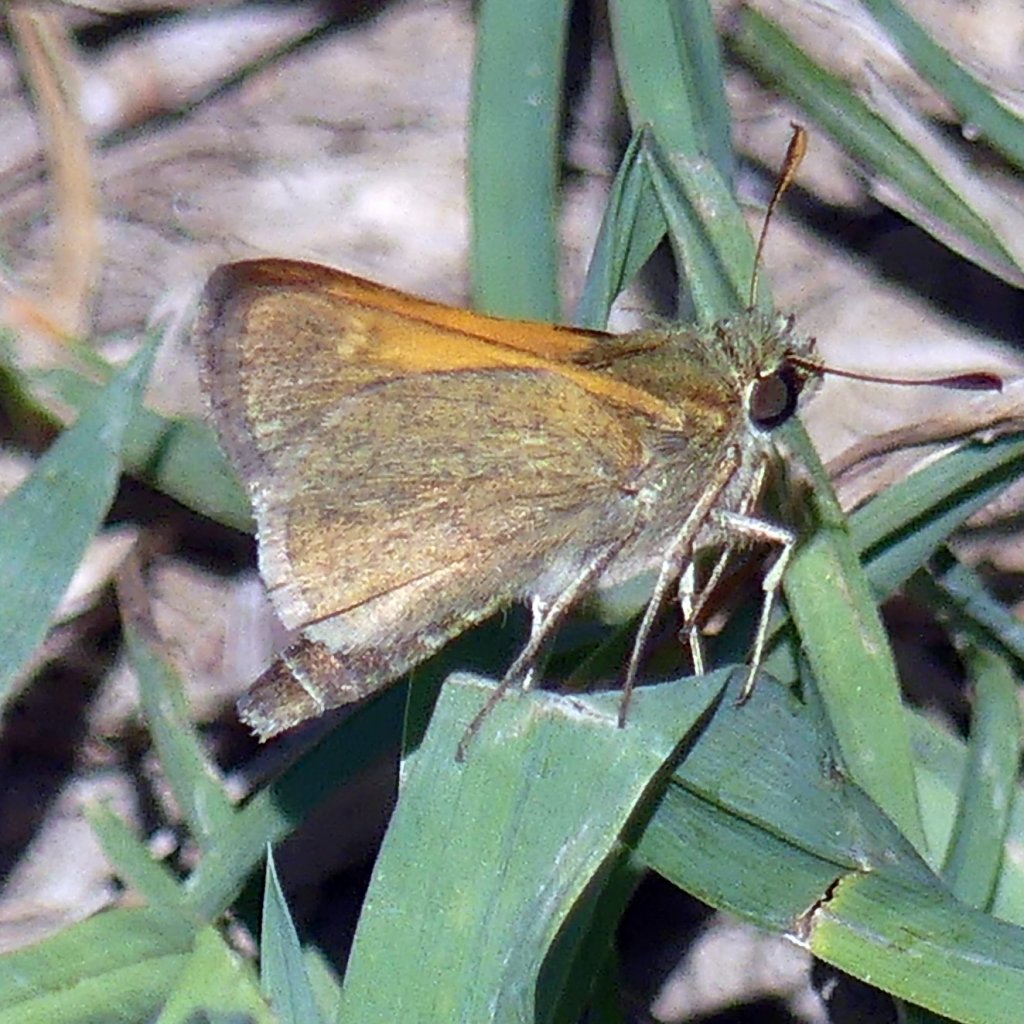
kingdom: Animalia
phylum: Arthropoda
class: Insecta
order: Lepidoptera
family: Hesperiidae
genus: Polites
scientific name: Polites themistocles
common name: Tawny-edged Skipper
